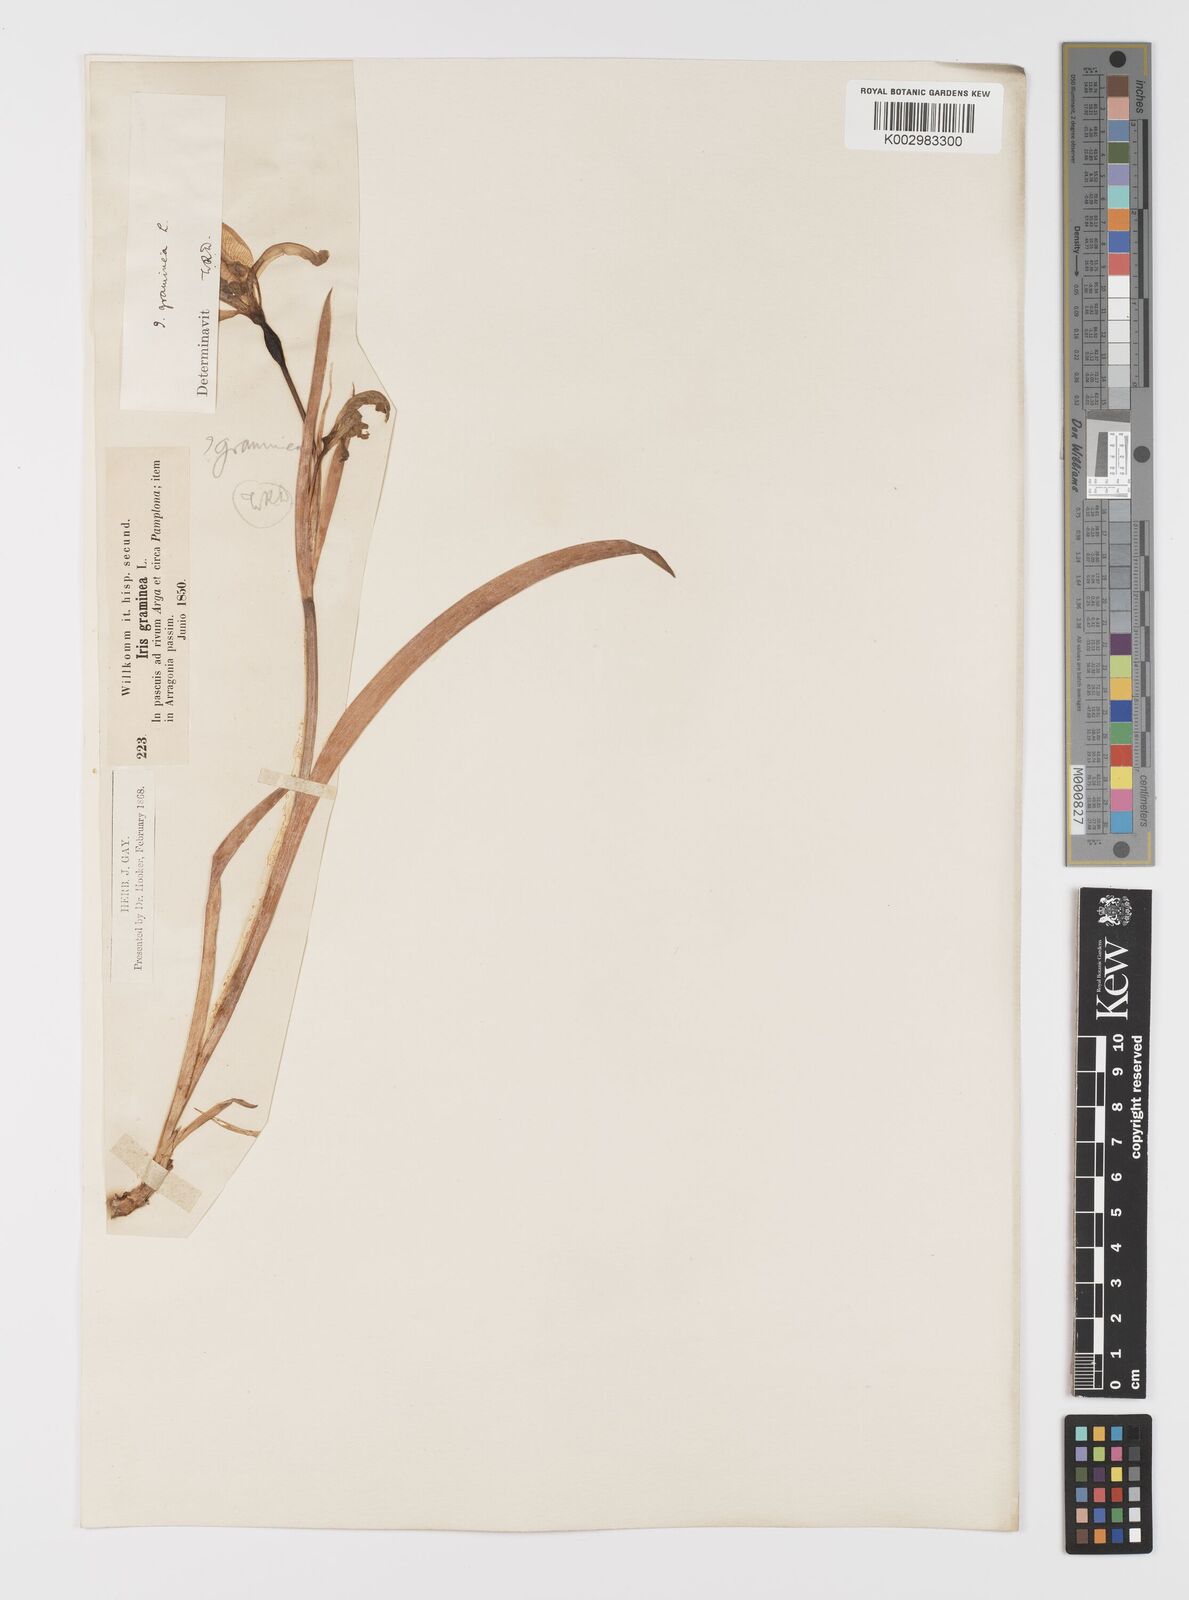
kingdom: Plantae
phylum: Tracheophyta
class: Liliopsida
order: Asparagales
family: Iridaceae
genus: Iris
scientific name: Iris graminea
